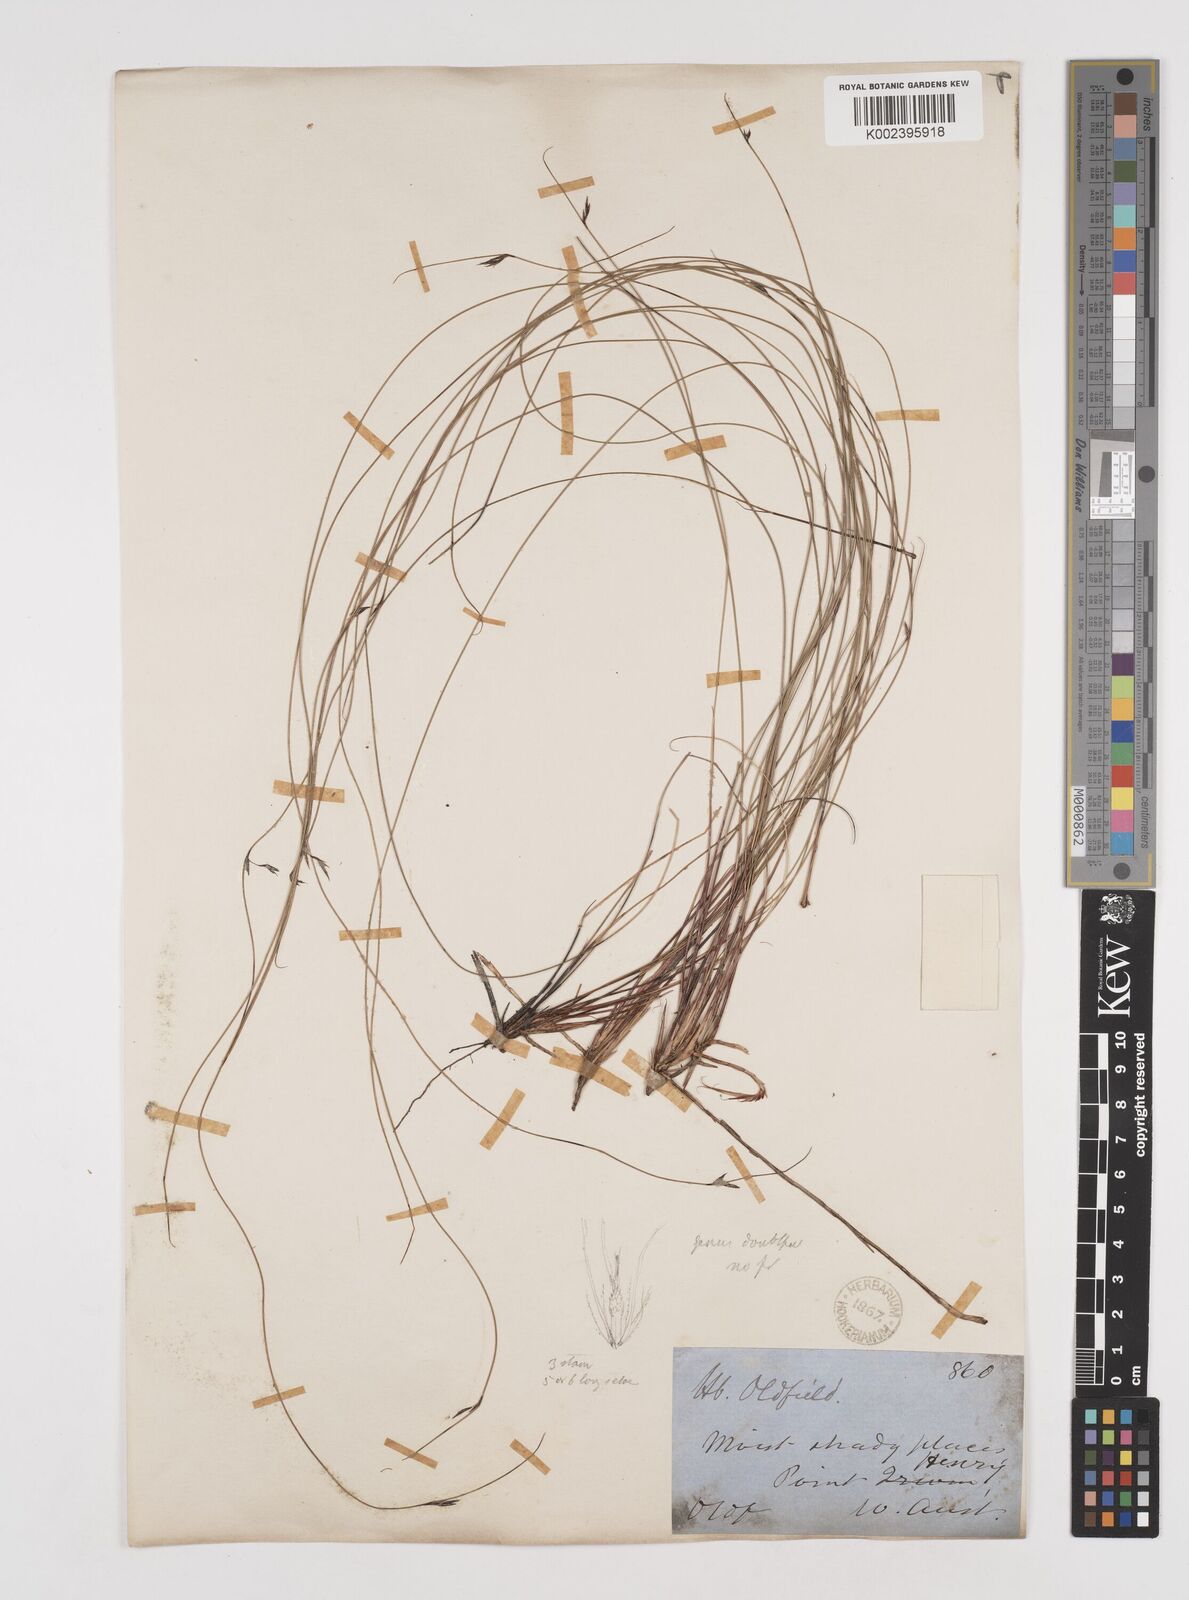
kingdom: Plantae
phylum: Tracheophyta
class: Liliopsida
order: Poales
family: Cyperaceae
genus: Tetraria
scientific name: Tetraria capillaris
